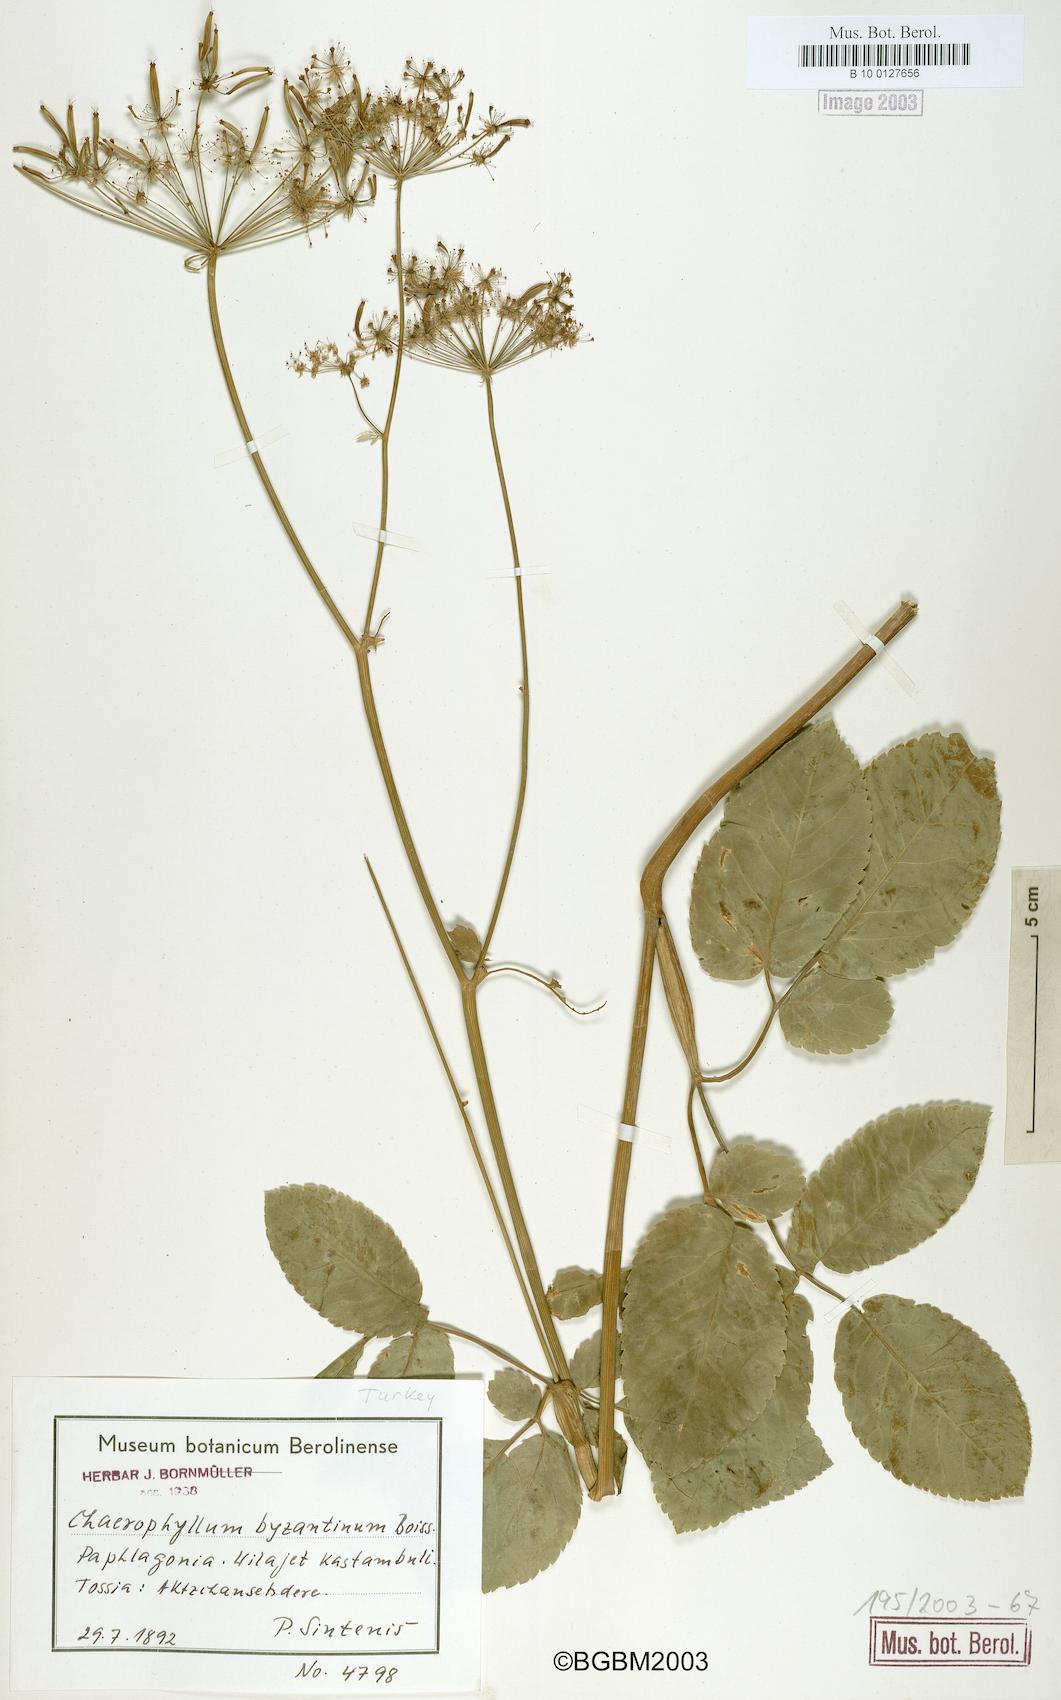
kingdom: Plantae
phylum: Tracheophyta
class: Magnoliopsida
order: Apiales
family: Apiaceae
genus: Chaerophyllum
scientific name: Chaerophyllum byzantinum
